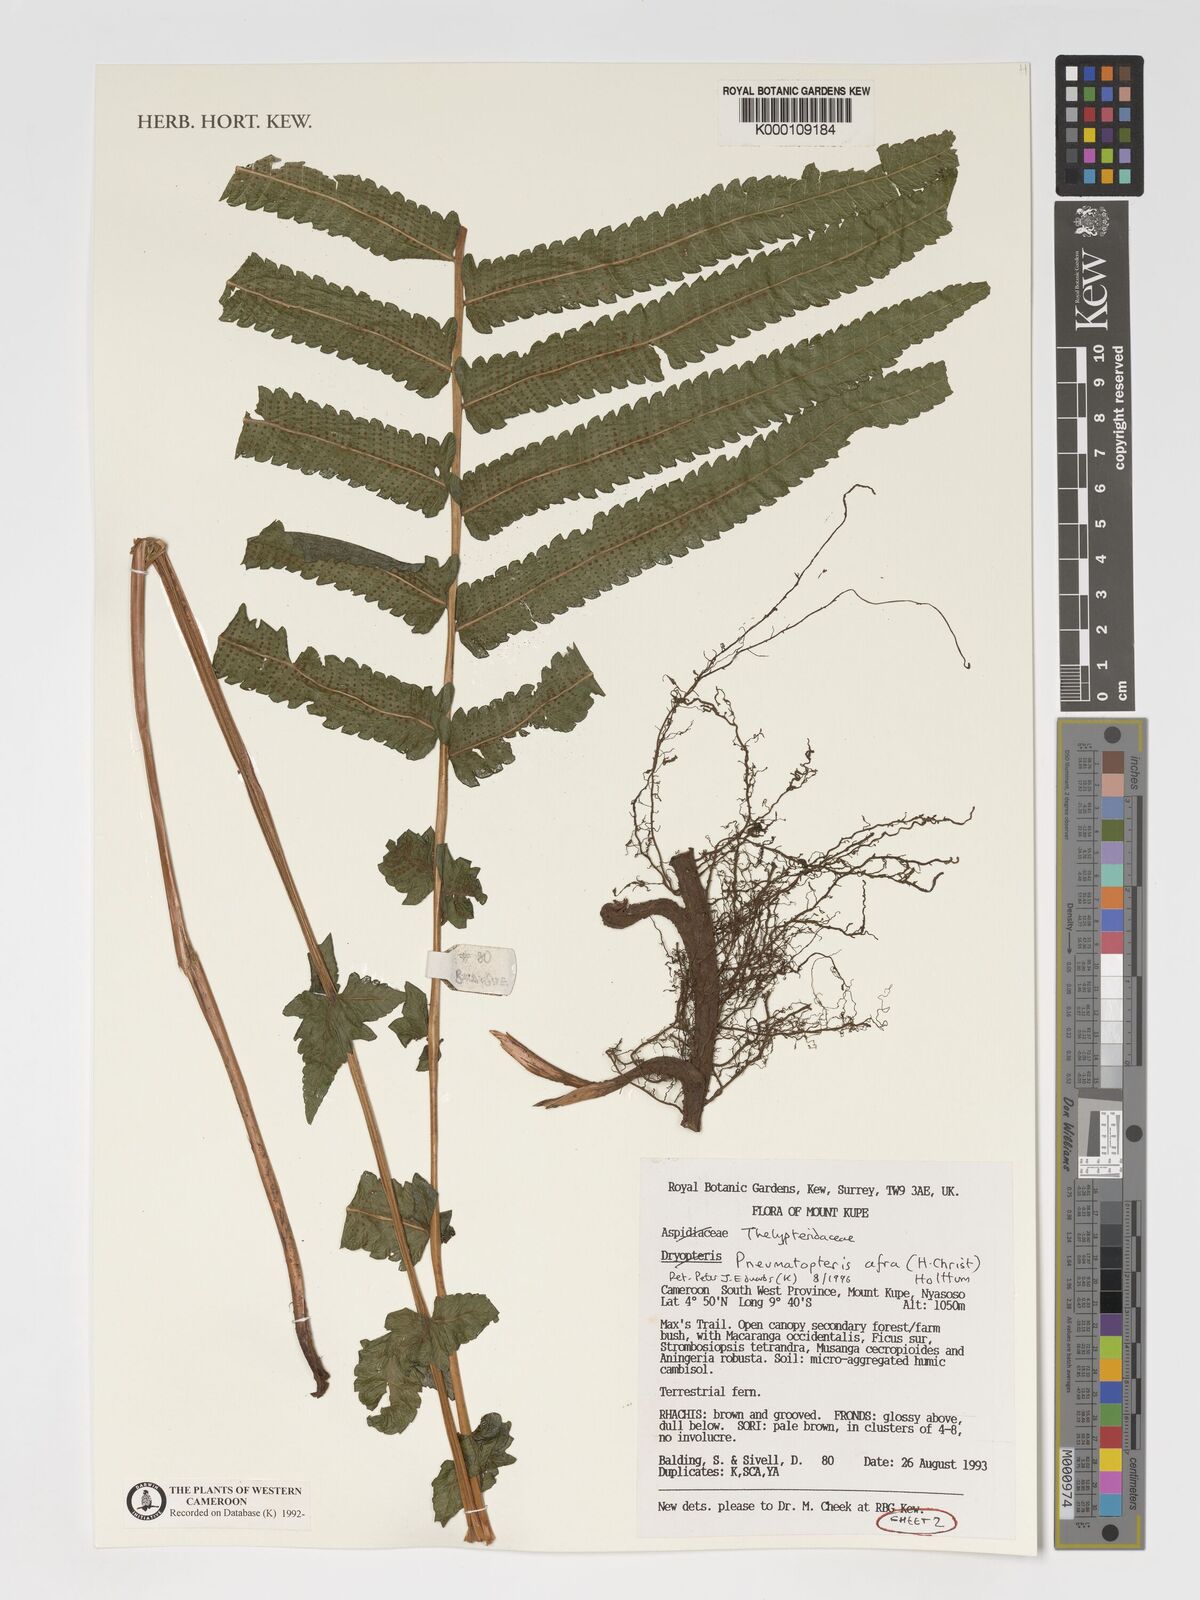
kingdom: Plantae
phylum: Tracheophyta
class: Polypodiopsida
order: Polypodiales
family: Thelypteridaceae
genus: Abacopteris
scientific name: Abacopteris afra
